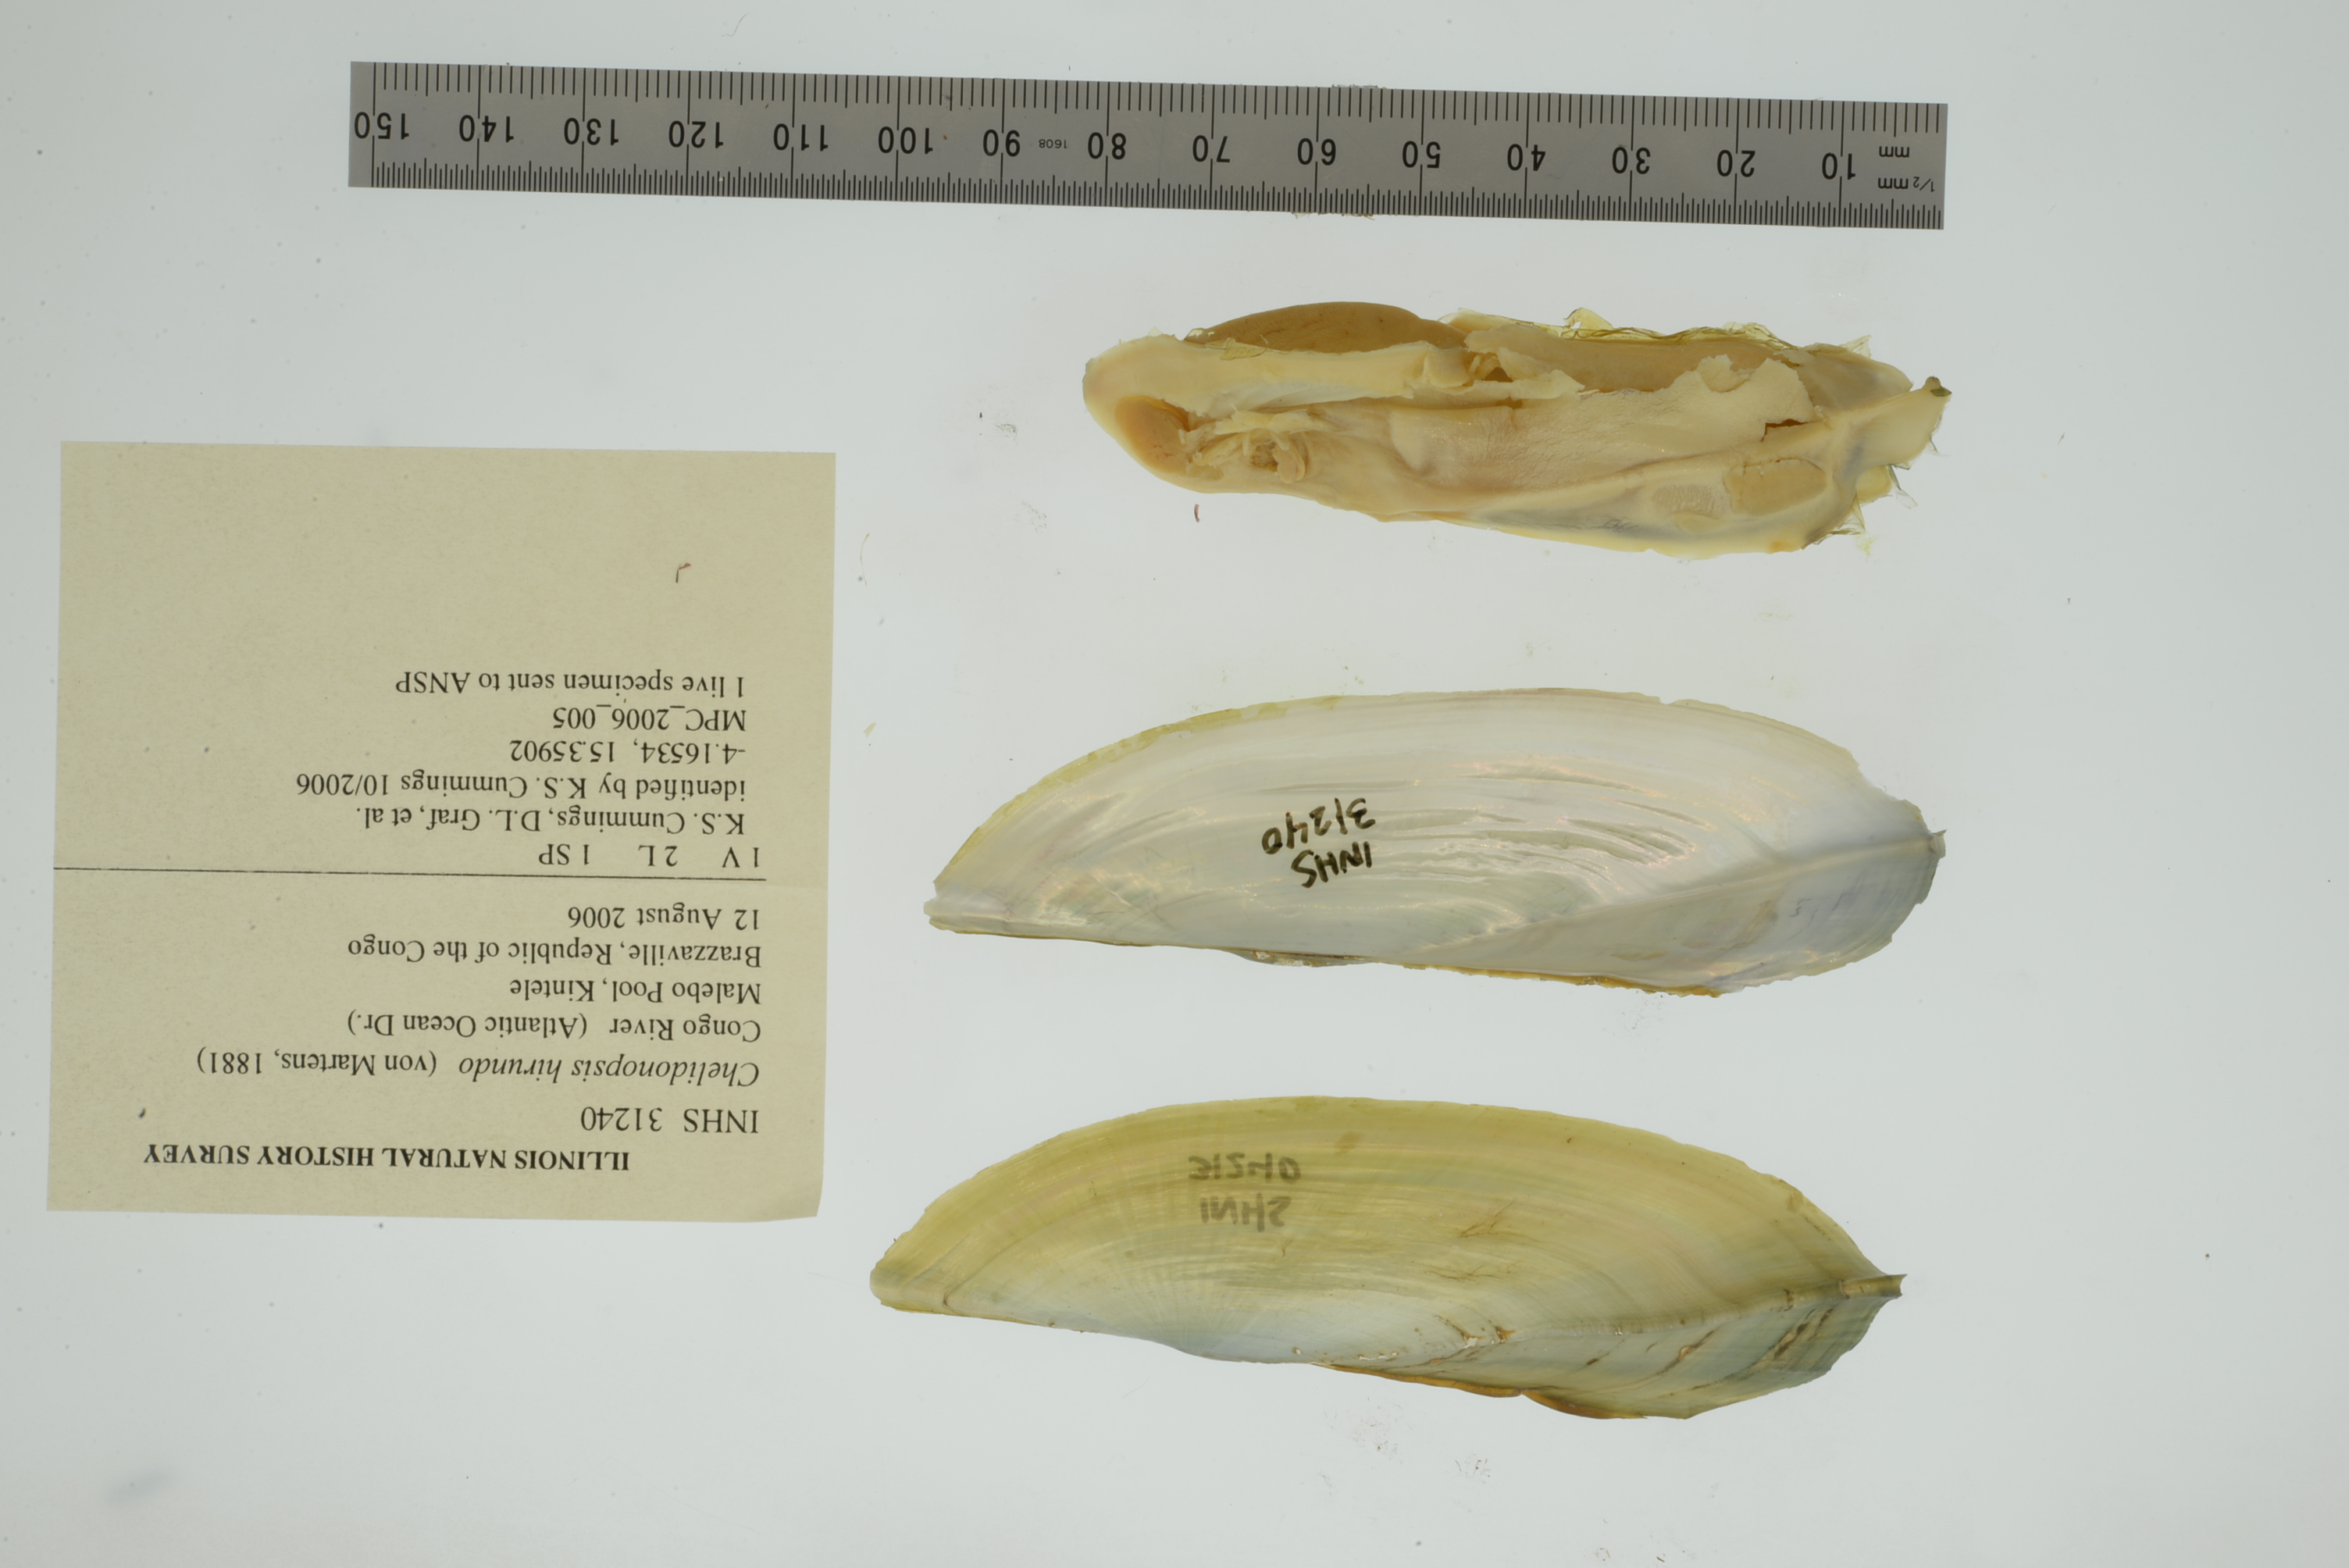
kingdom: Animalia
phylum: Mollusca
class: Bivalvia
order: Unionida
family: Iridinidae
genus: Chelidonopsis
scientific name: Chelidonopsis hirundo
